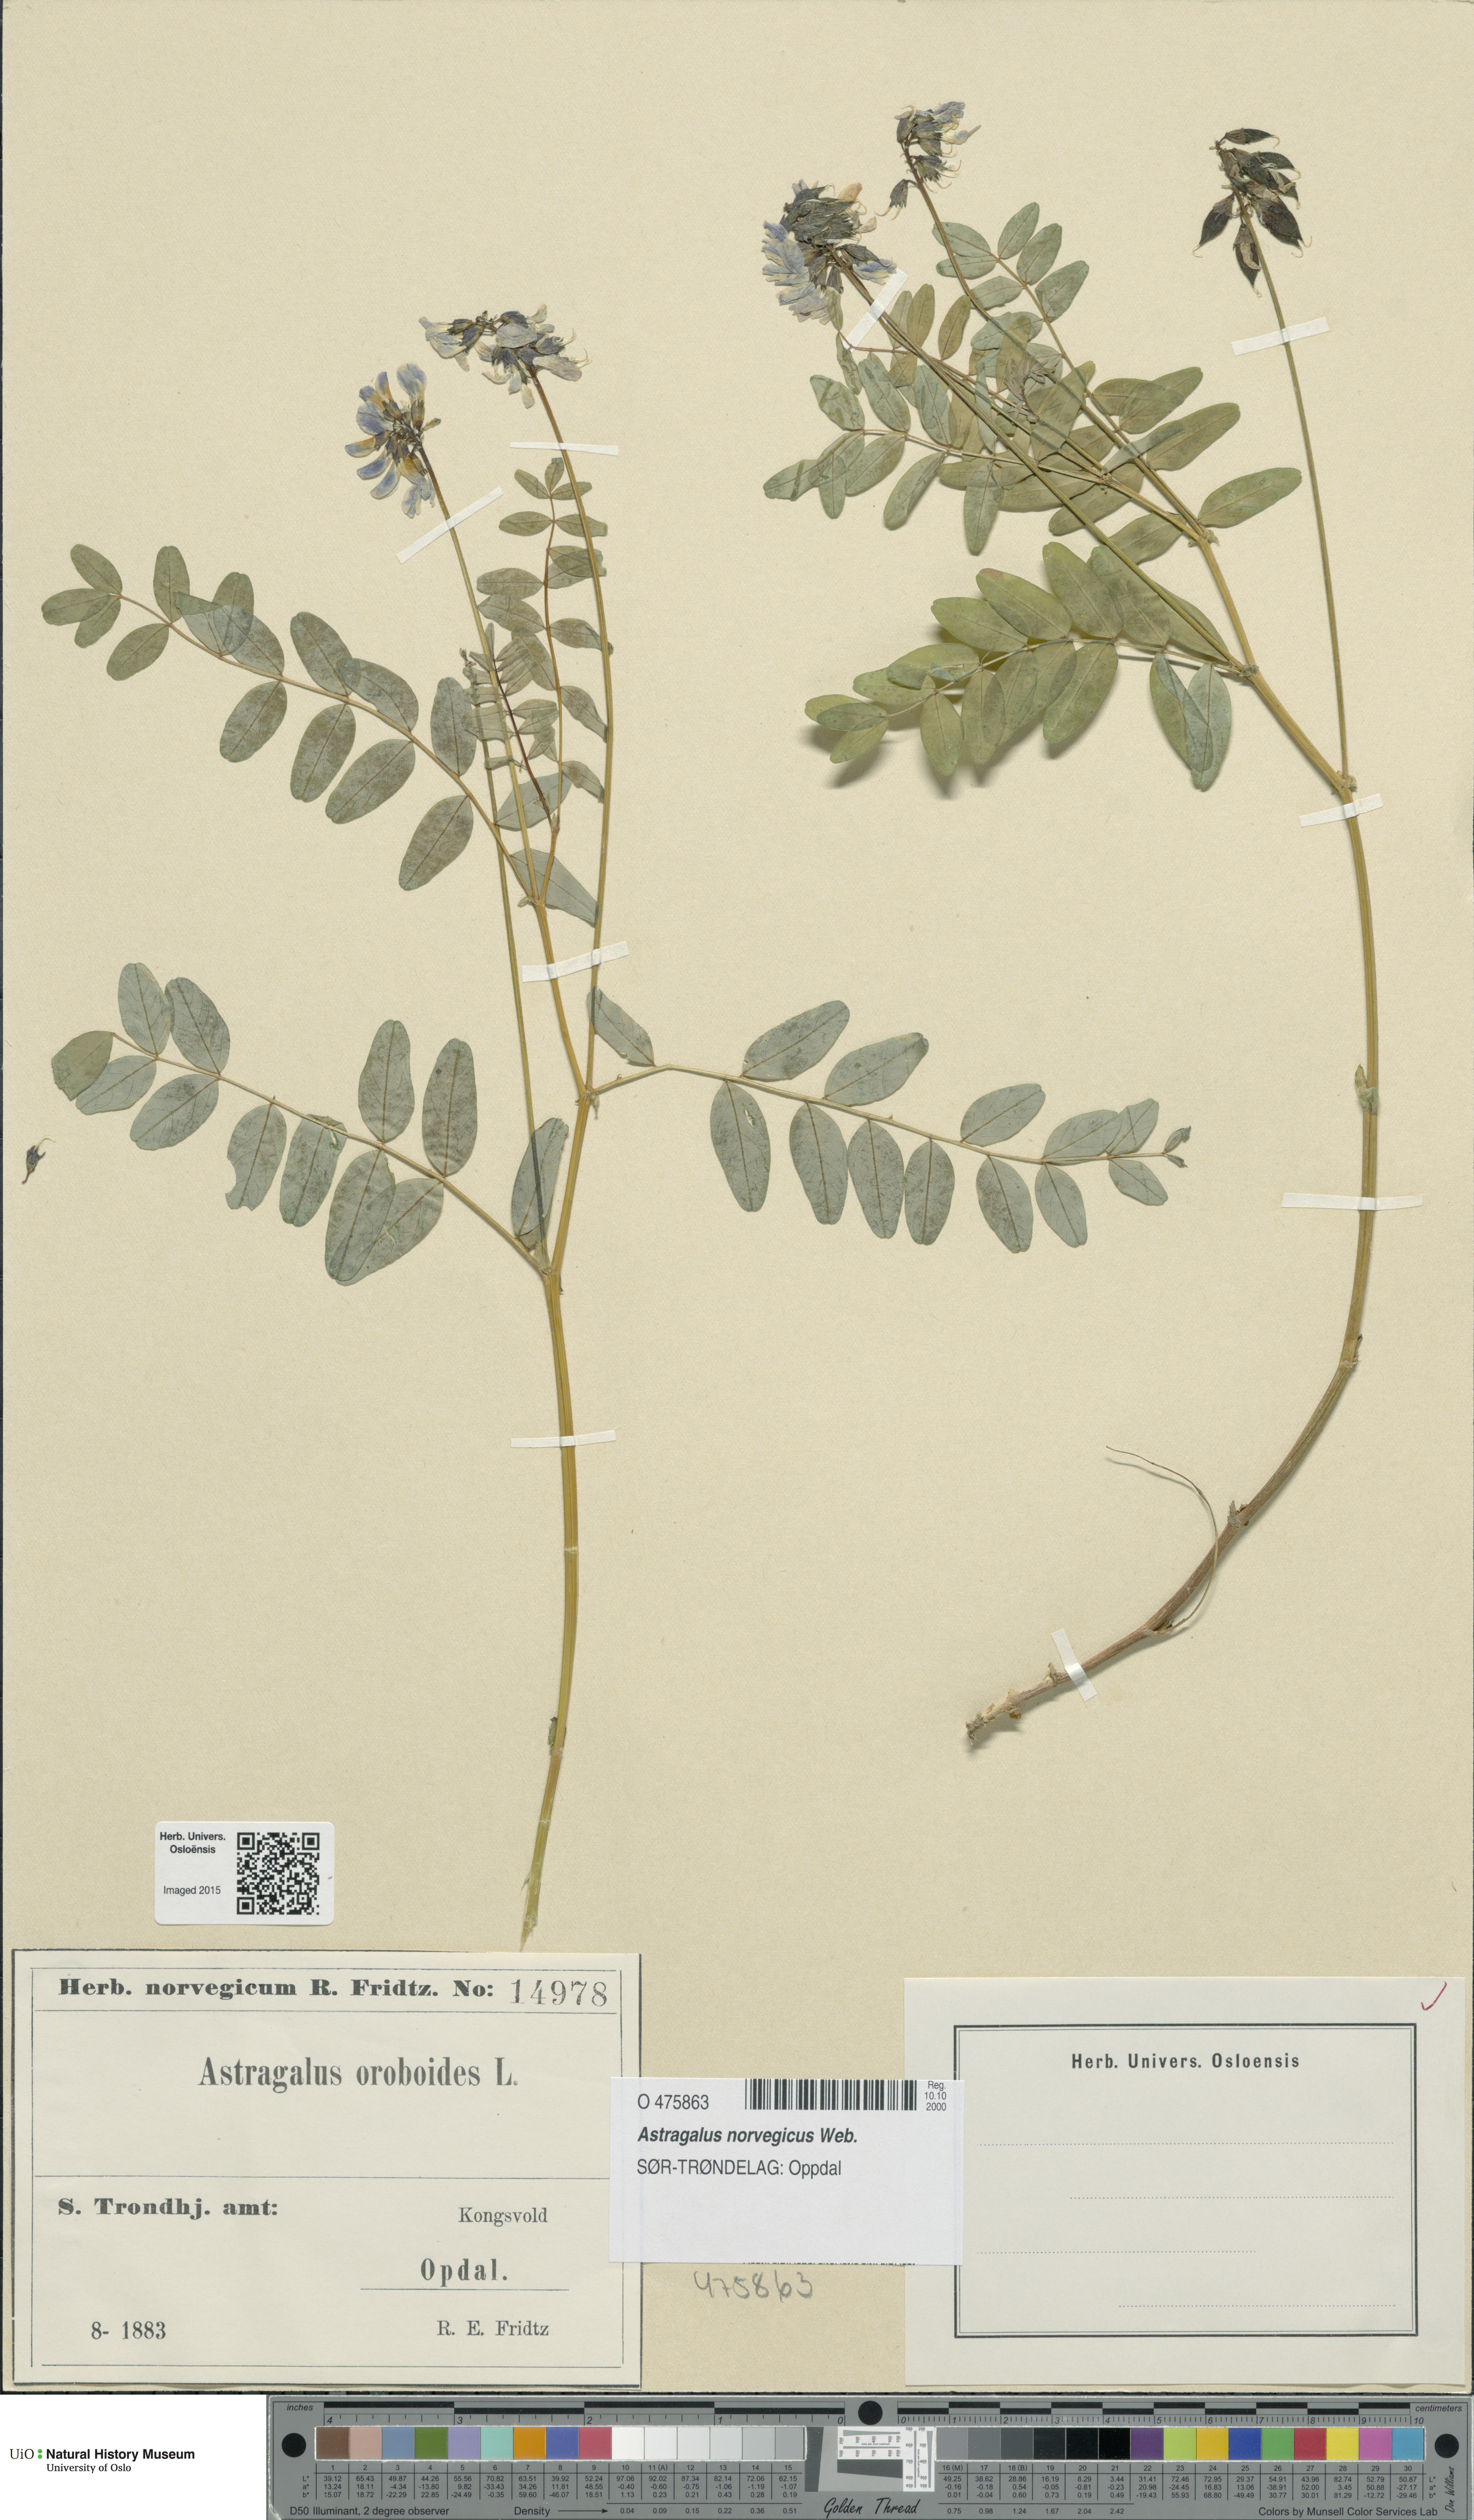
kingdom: Plantae
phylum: Tracheophyta
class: Magnoliopsida
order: Fabales
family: Fabaceae
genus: Astragalus
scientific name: Astragalus norvegicus
